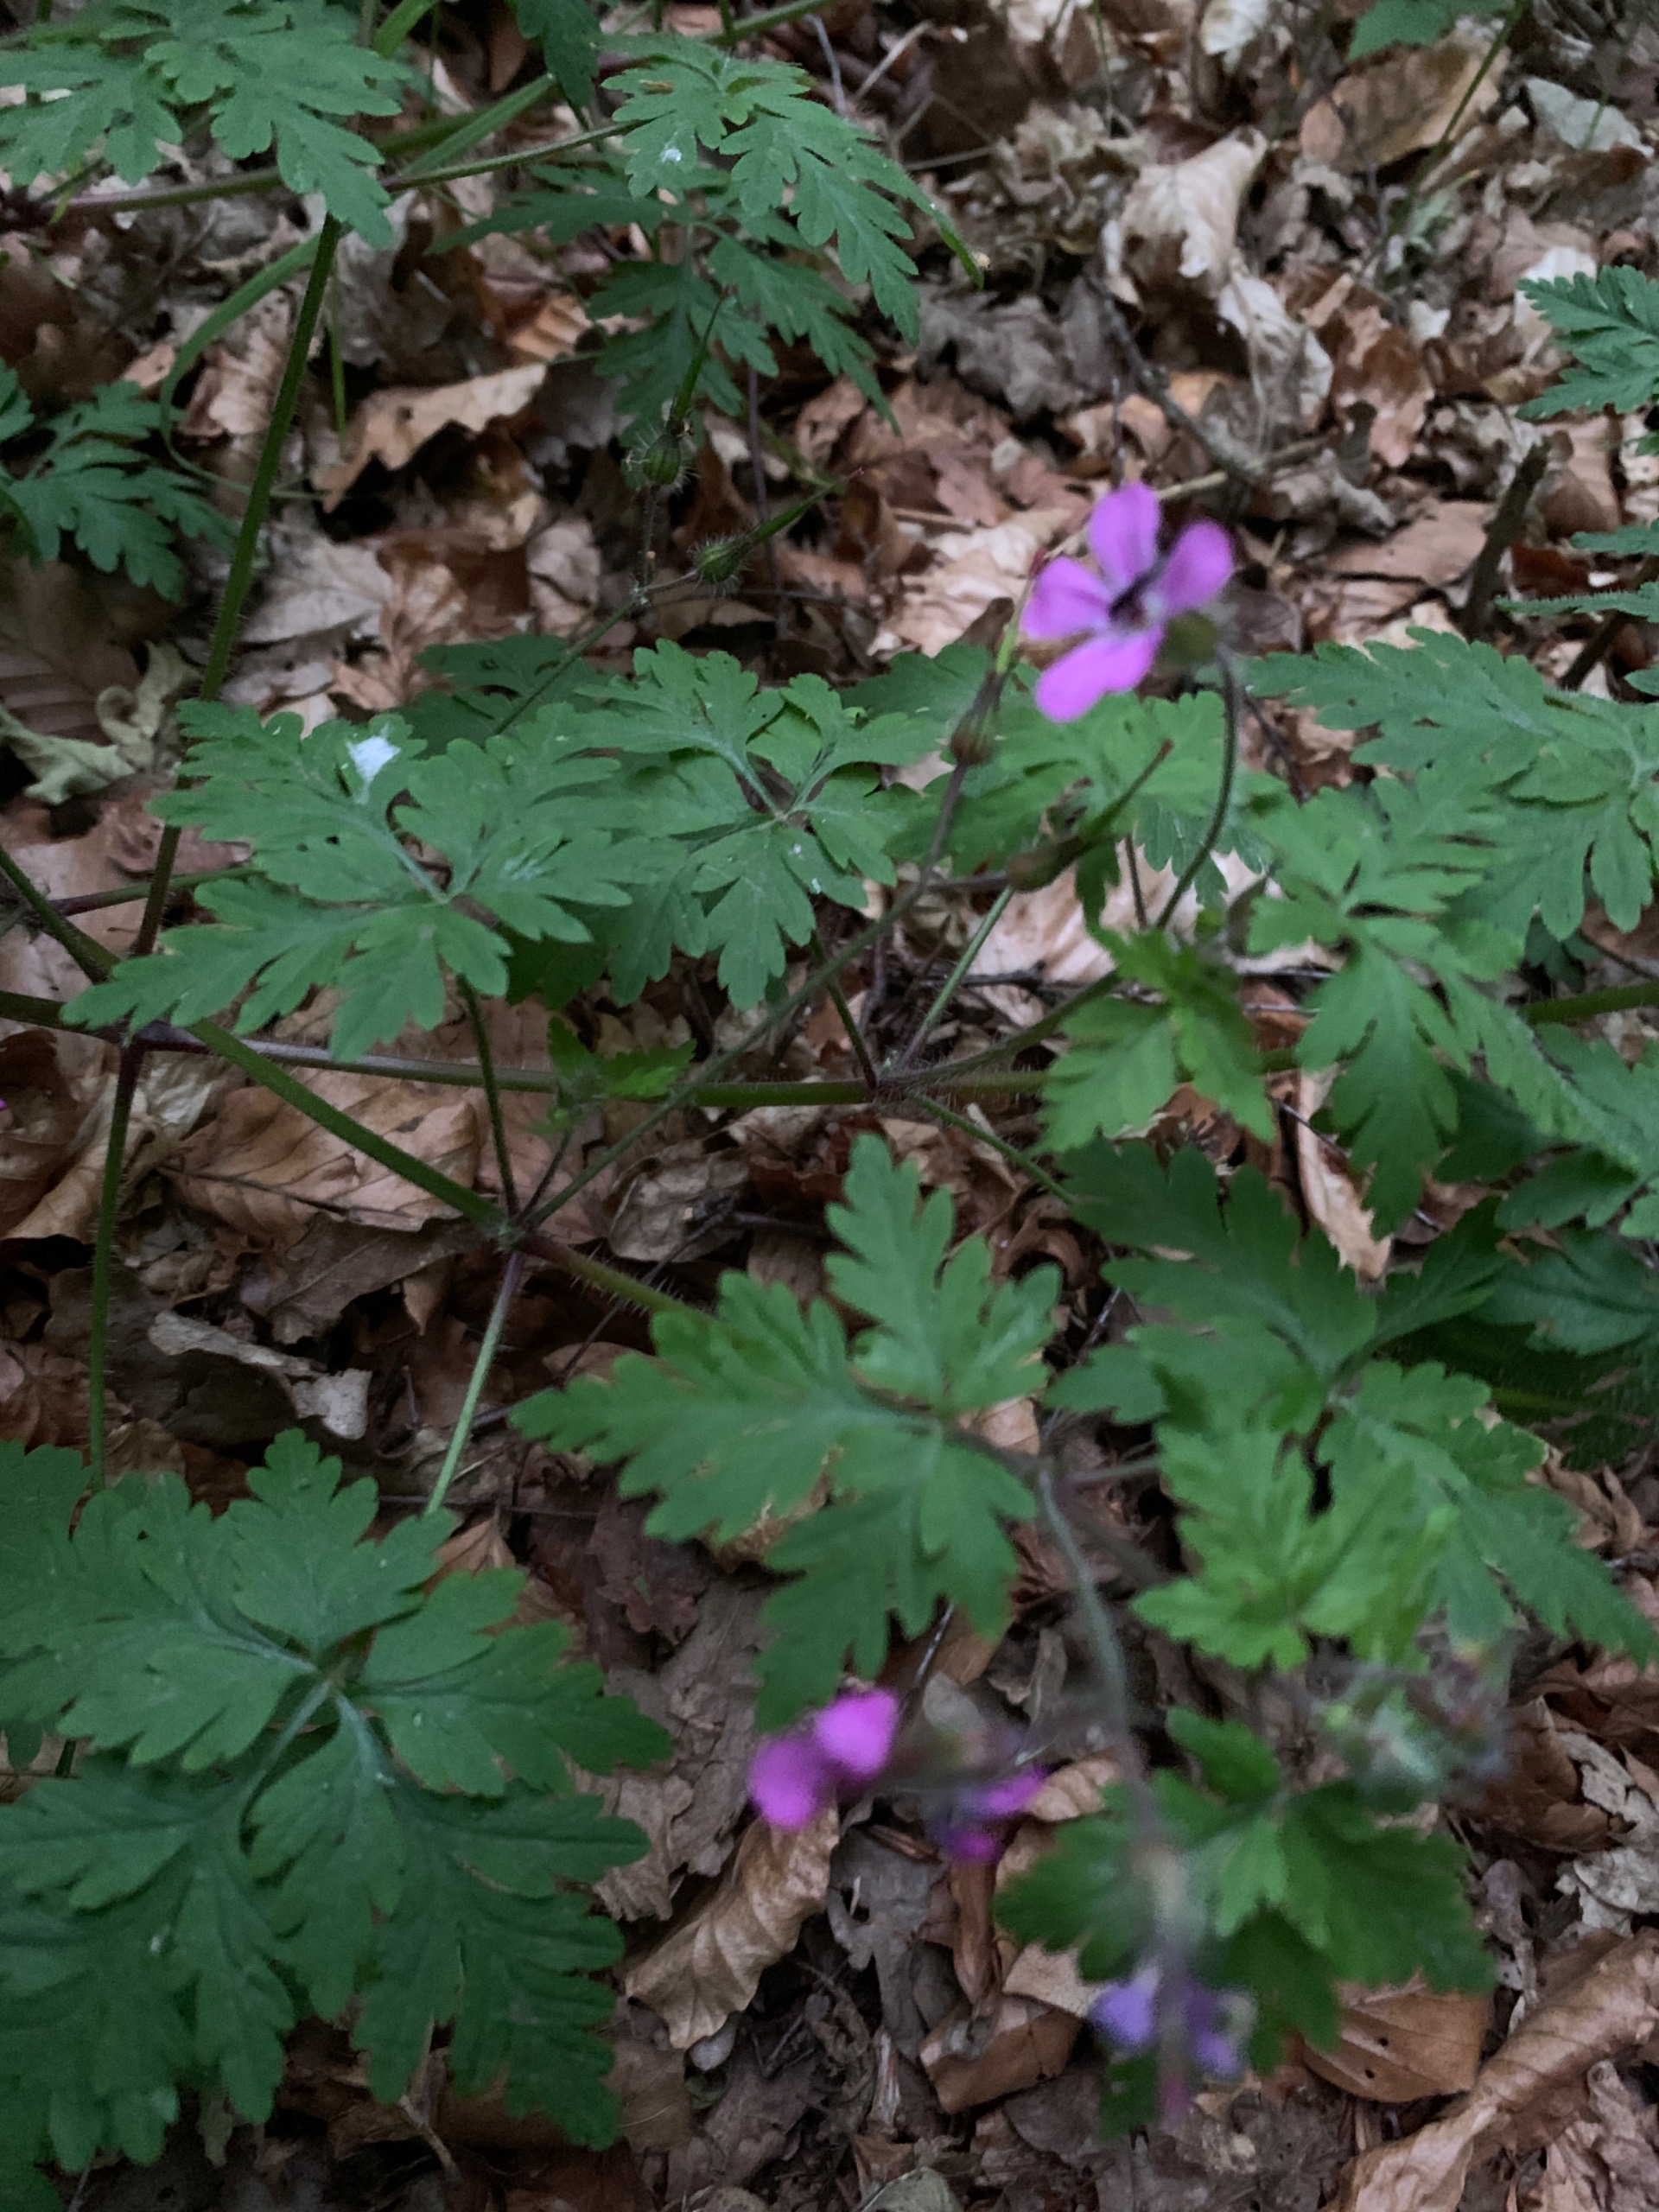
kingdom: Plantae
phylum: Tracheophyta
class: Magnoliopsida
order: Geraniales
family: Geraniaceae
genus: Geranium
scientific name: Geranium robertianum
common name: Stinkende storkenæb
